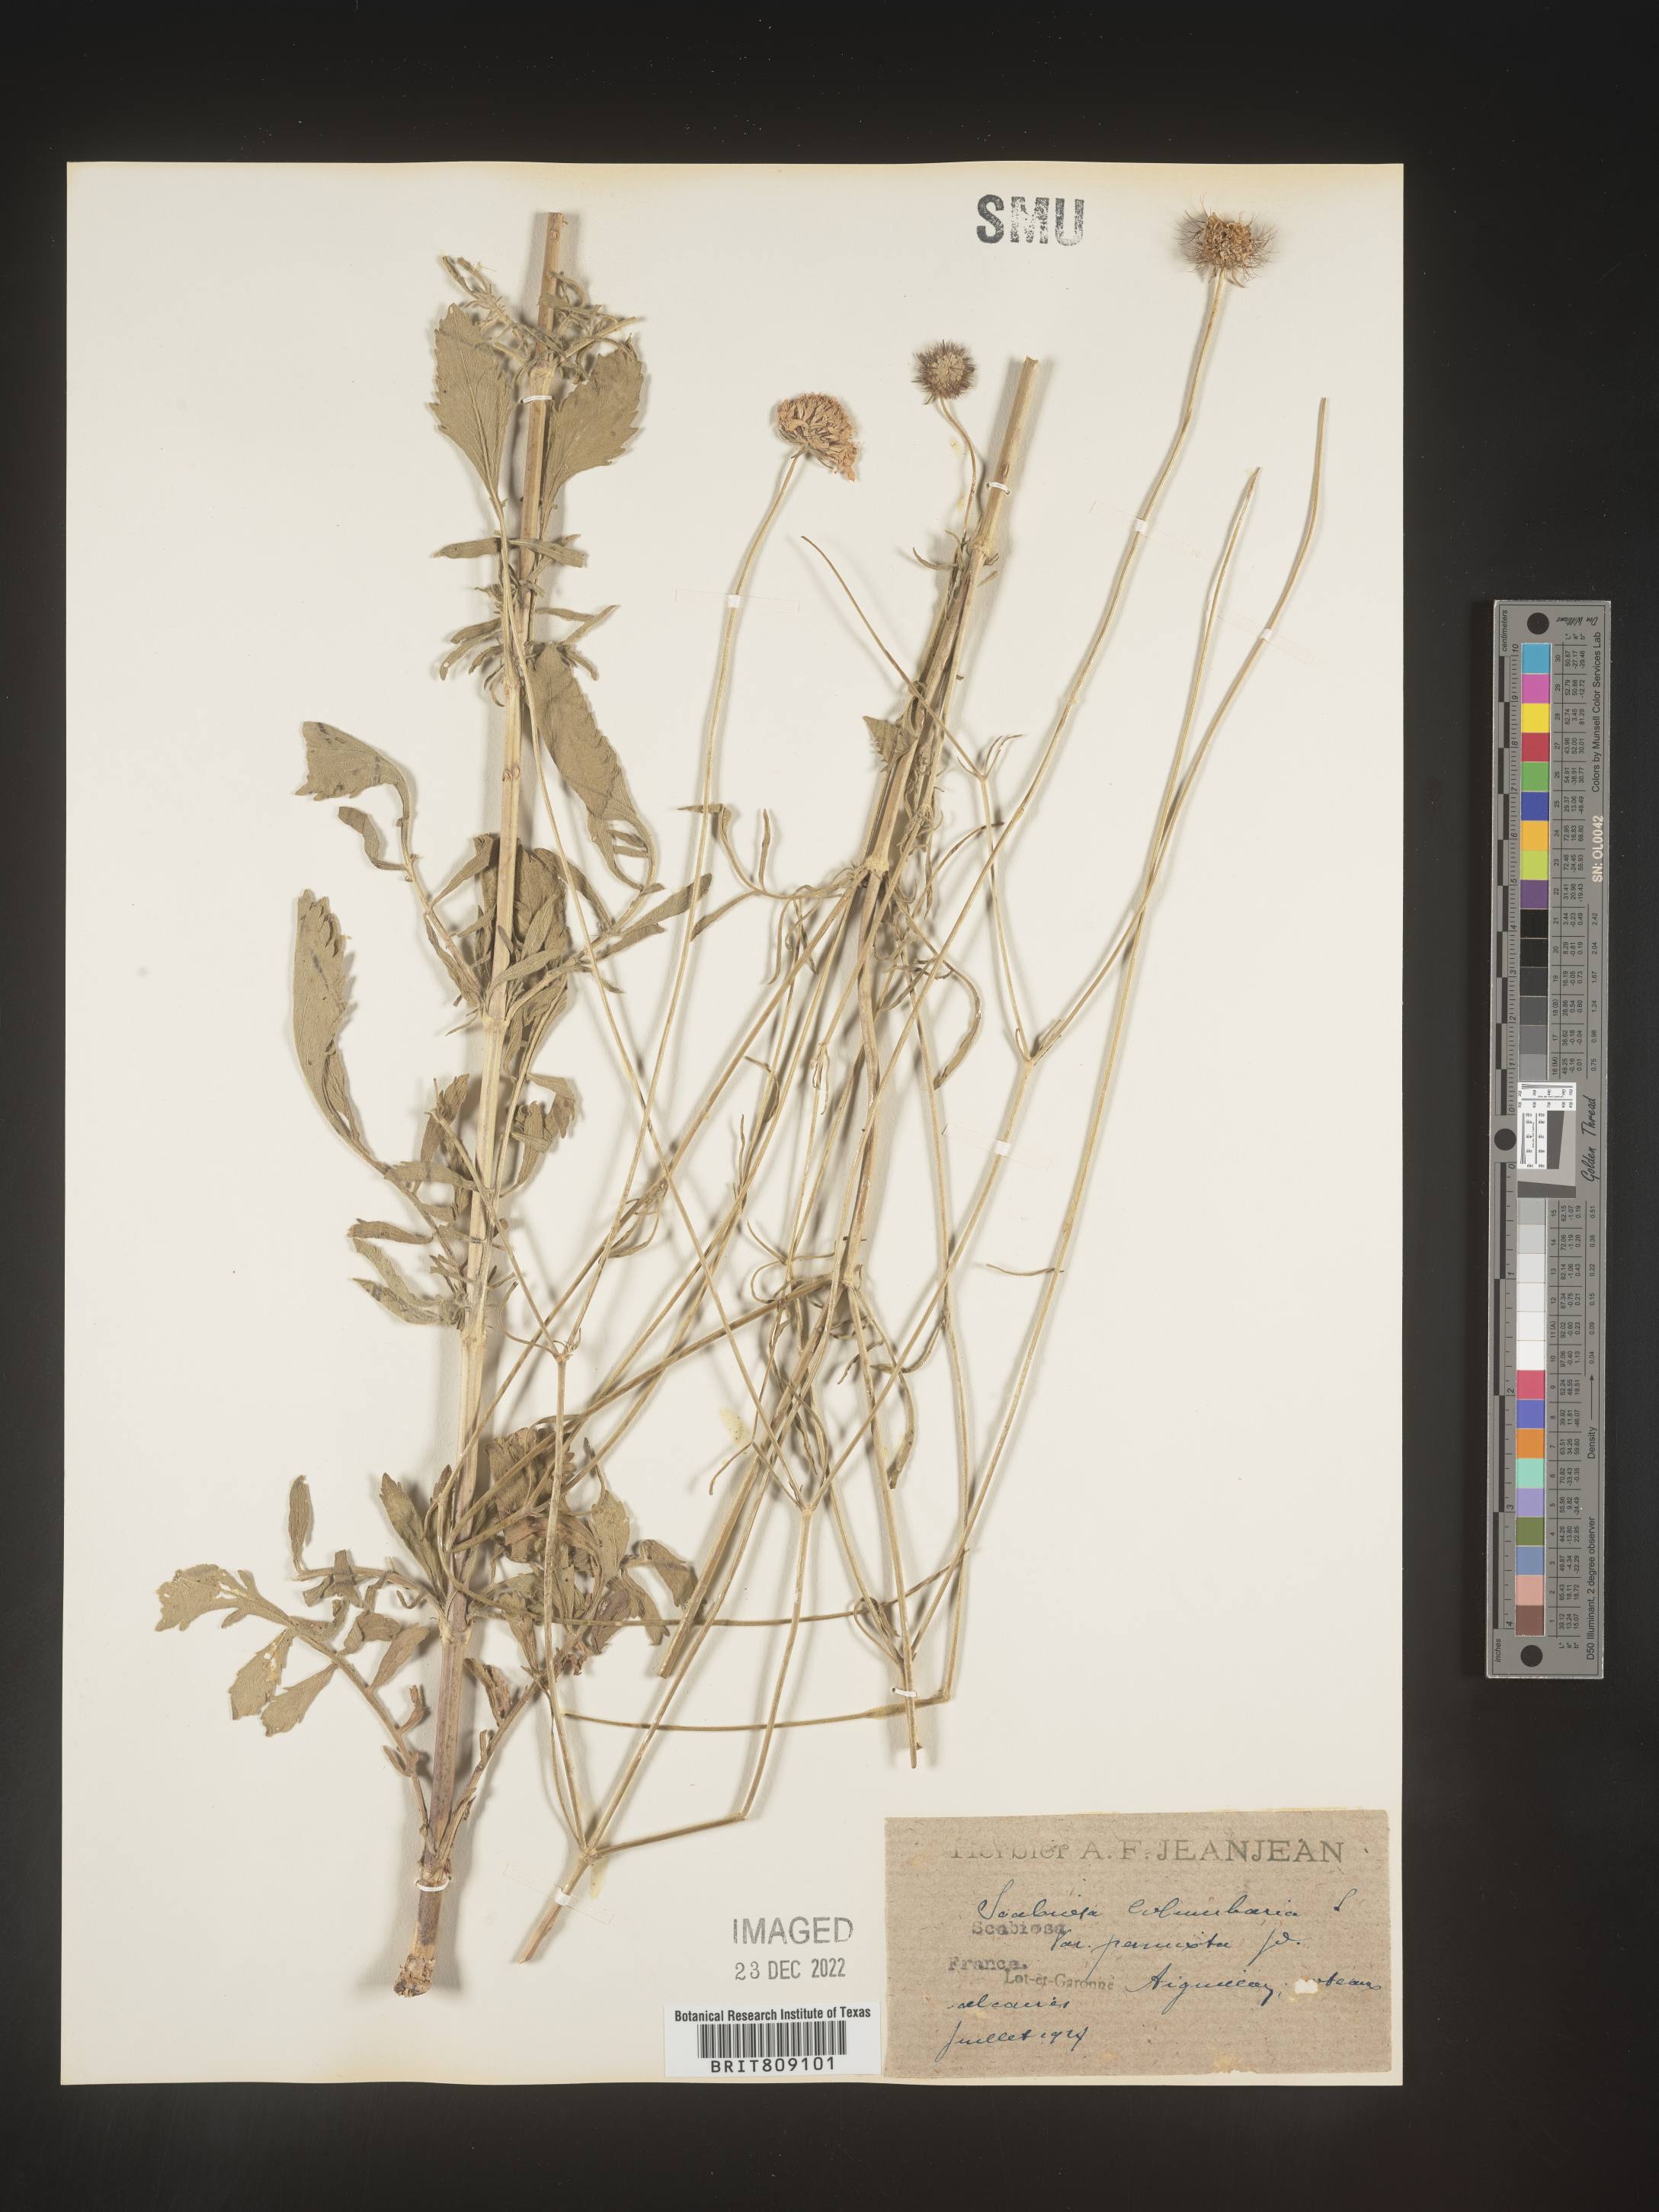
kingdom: Plantae
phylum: Tracheophyta
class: Magnoliopsida
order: Dipsacales
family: Caprifoliaceae
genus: Scabiosa
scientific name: Scabiosa
